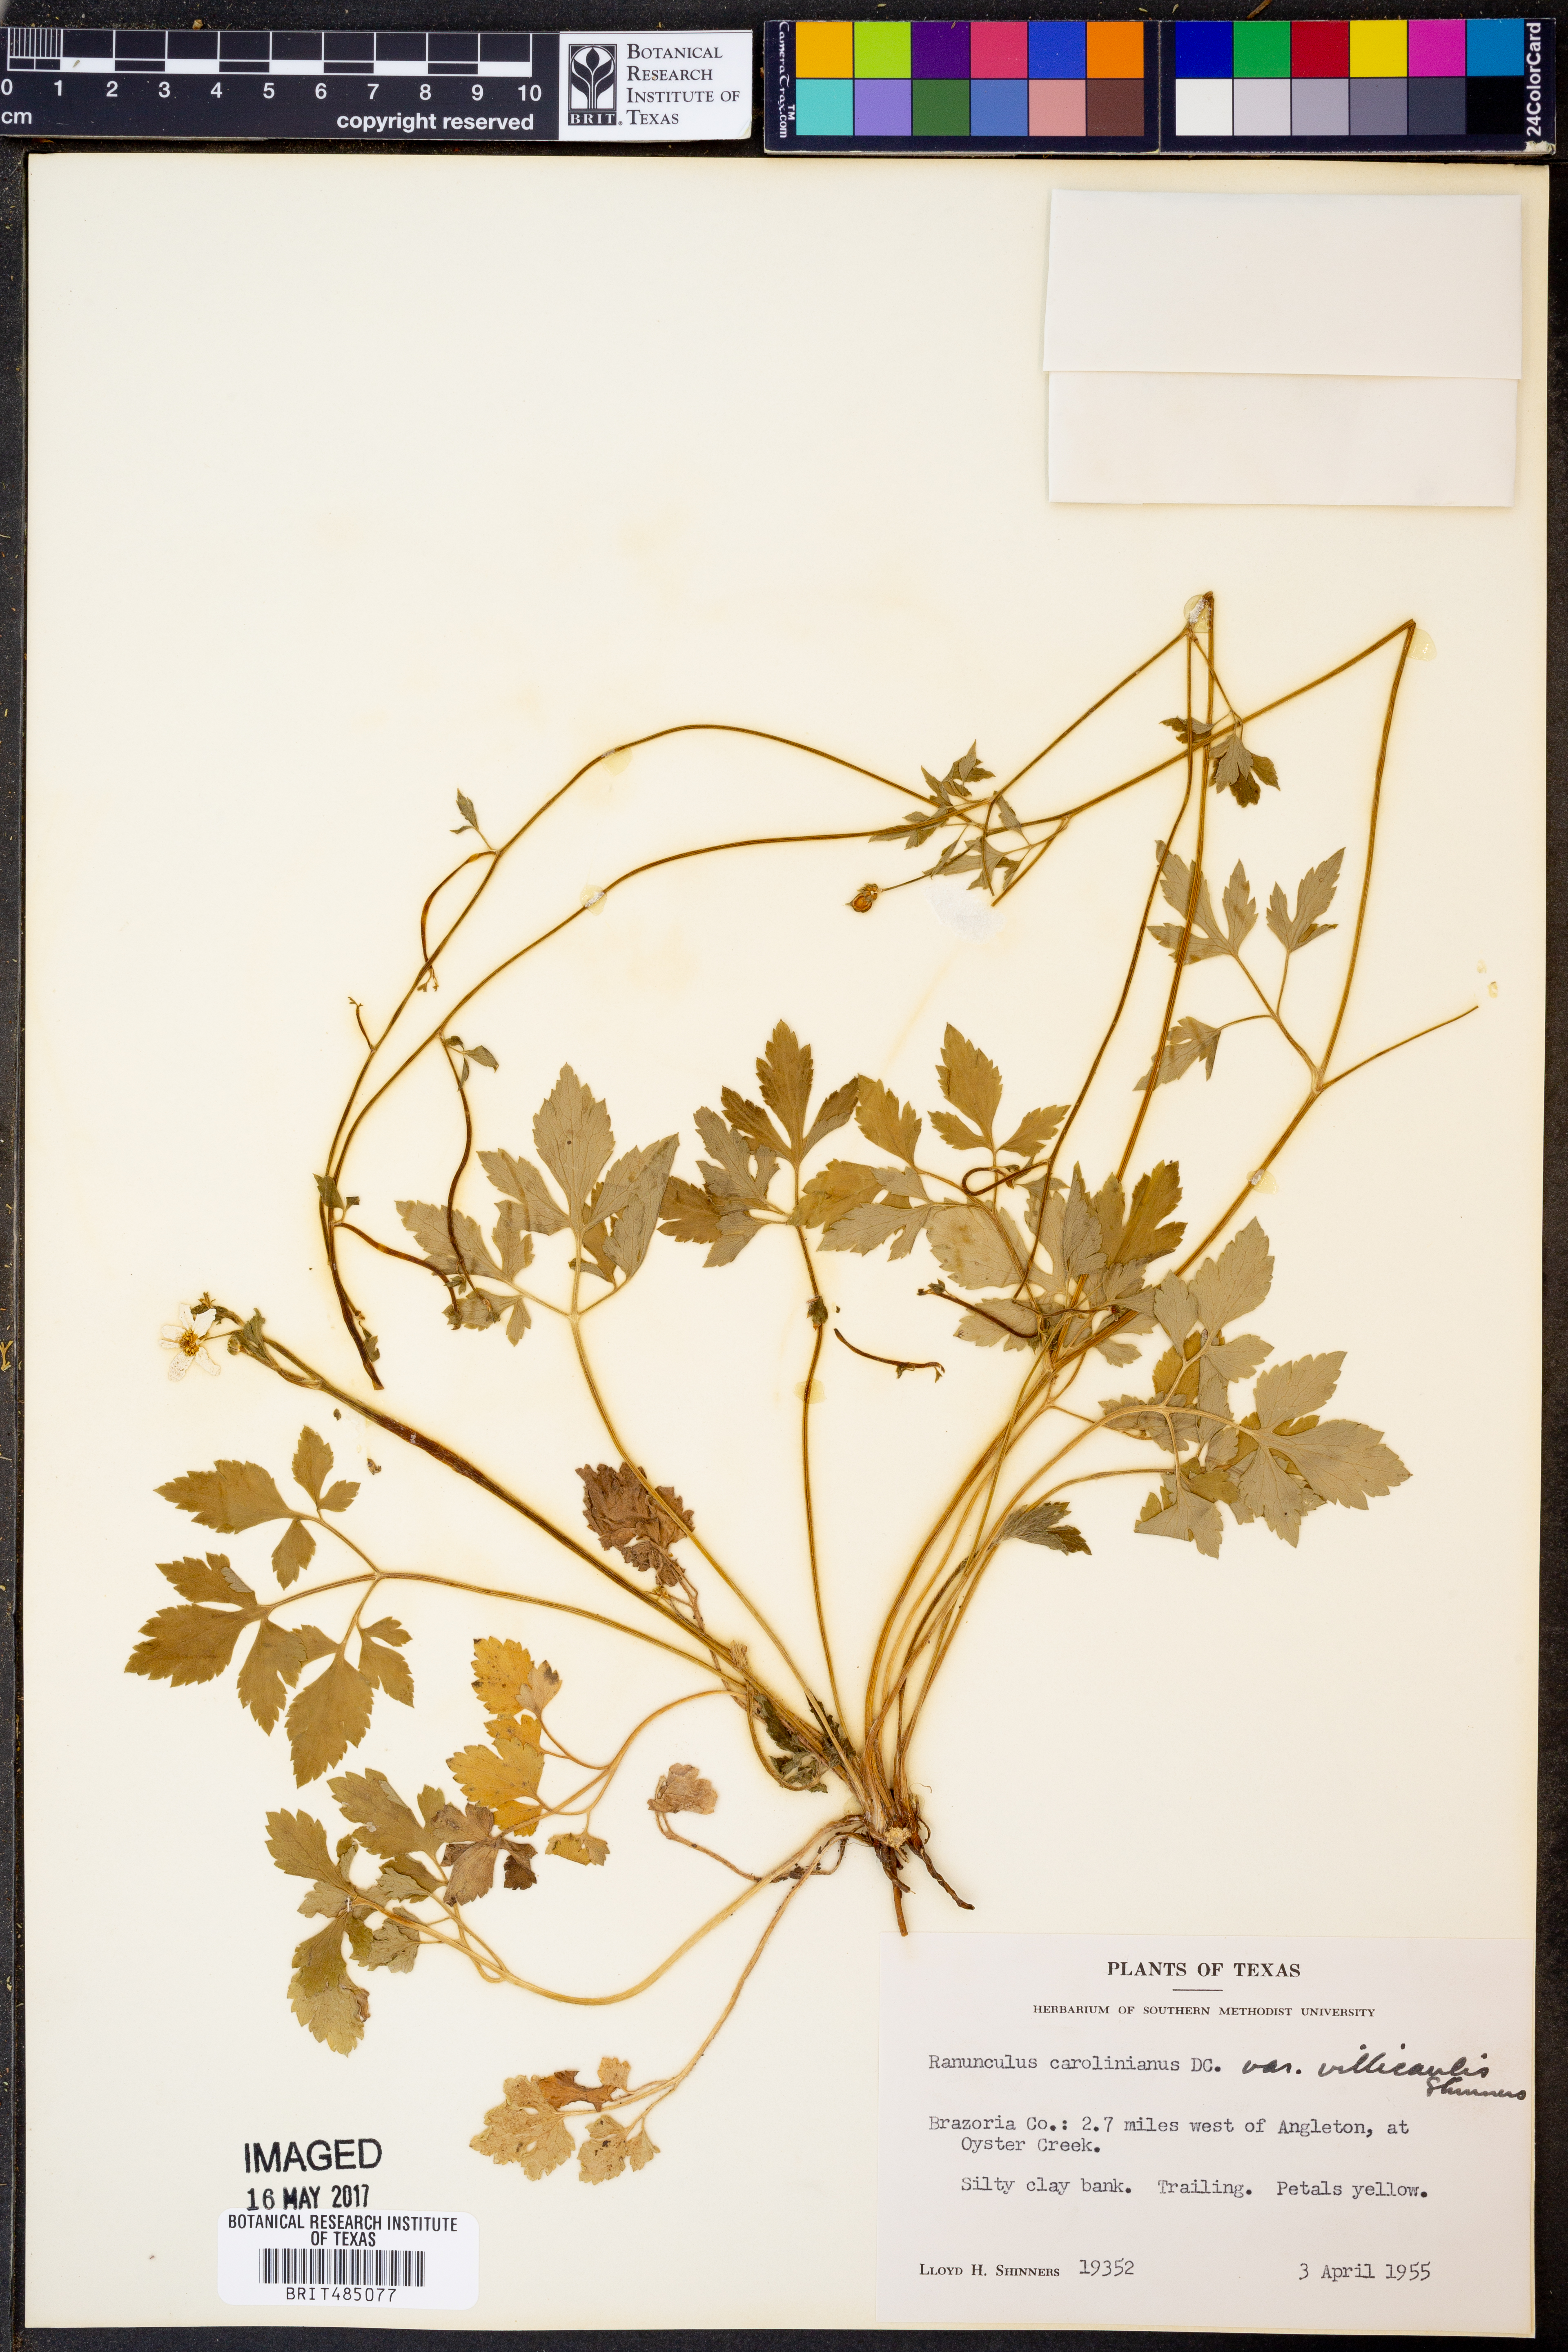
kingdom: Plantae
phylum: Tracheophyta
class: Magnoliopsida
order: Ranunculales
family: Ranunculaceae
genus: Ranunculus
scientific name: Ranunculus hispidus
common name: Bristly buttercup
